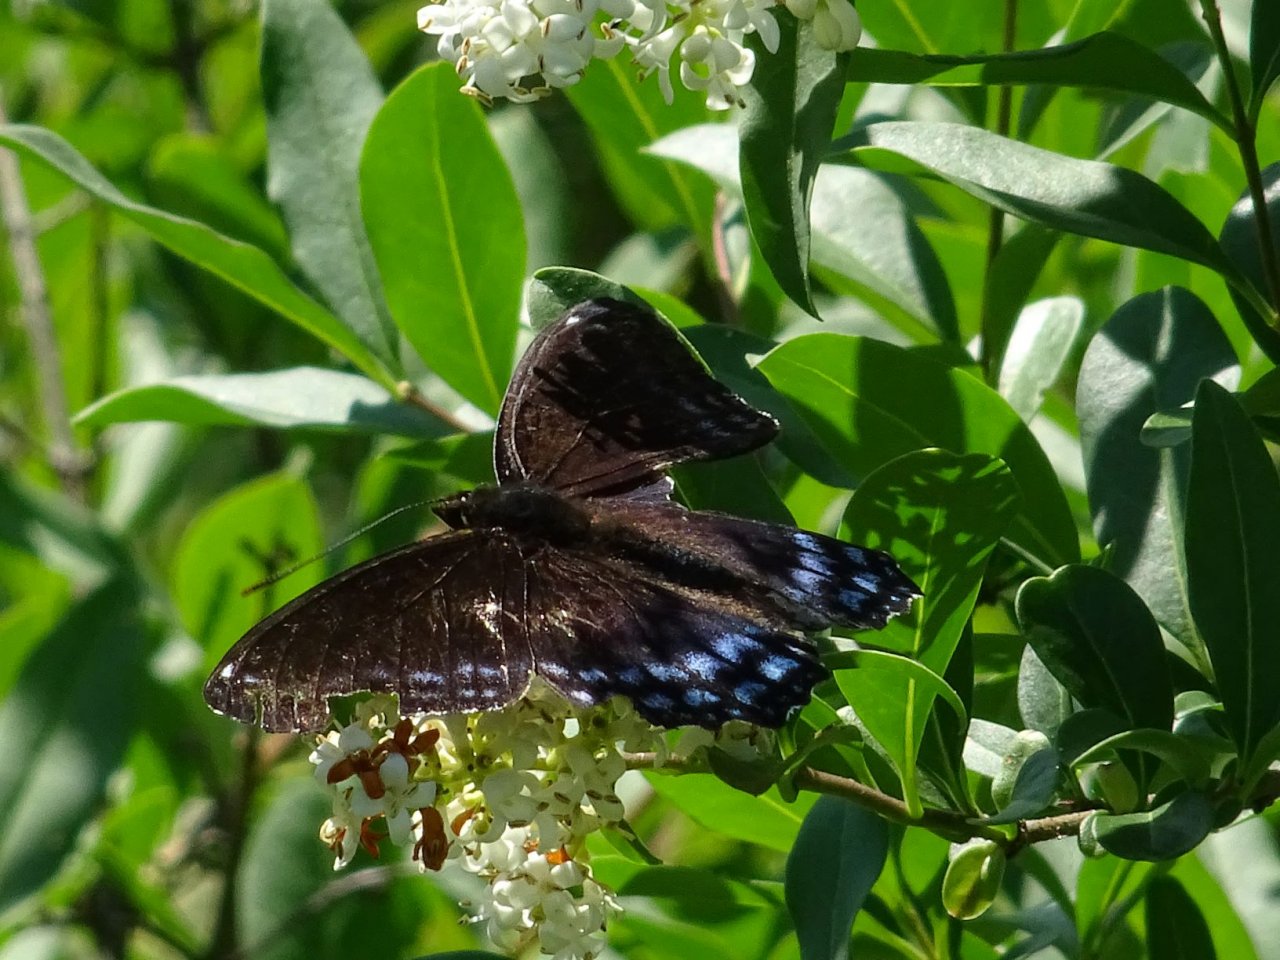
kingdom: Animalia
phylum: Arthropoda
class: Insecta
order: Lepidoptera
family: Nymphalidae
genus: Limenitis
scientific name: Limenitis astyanax
